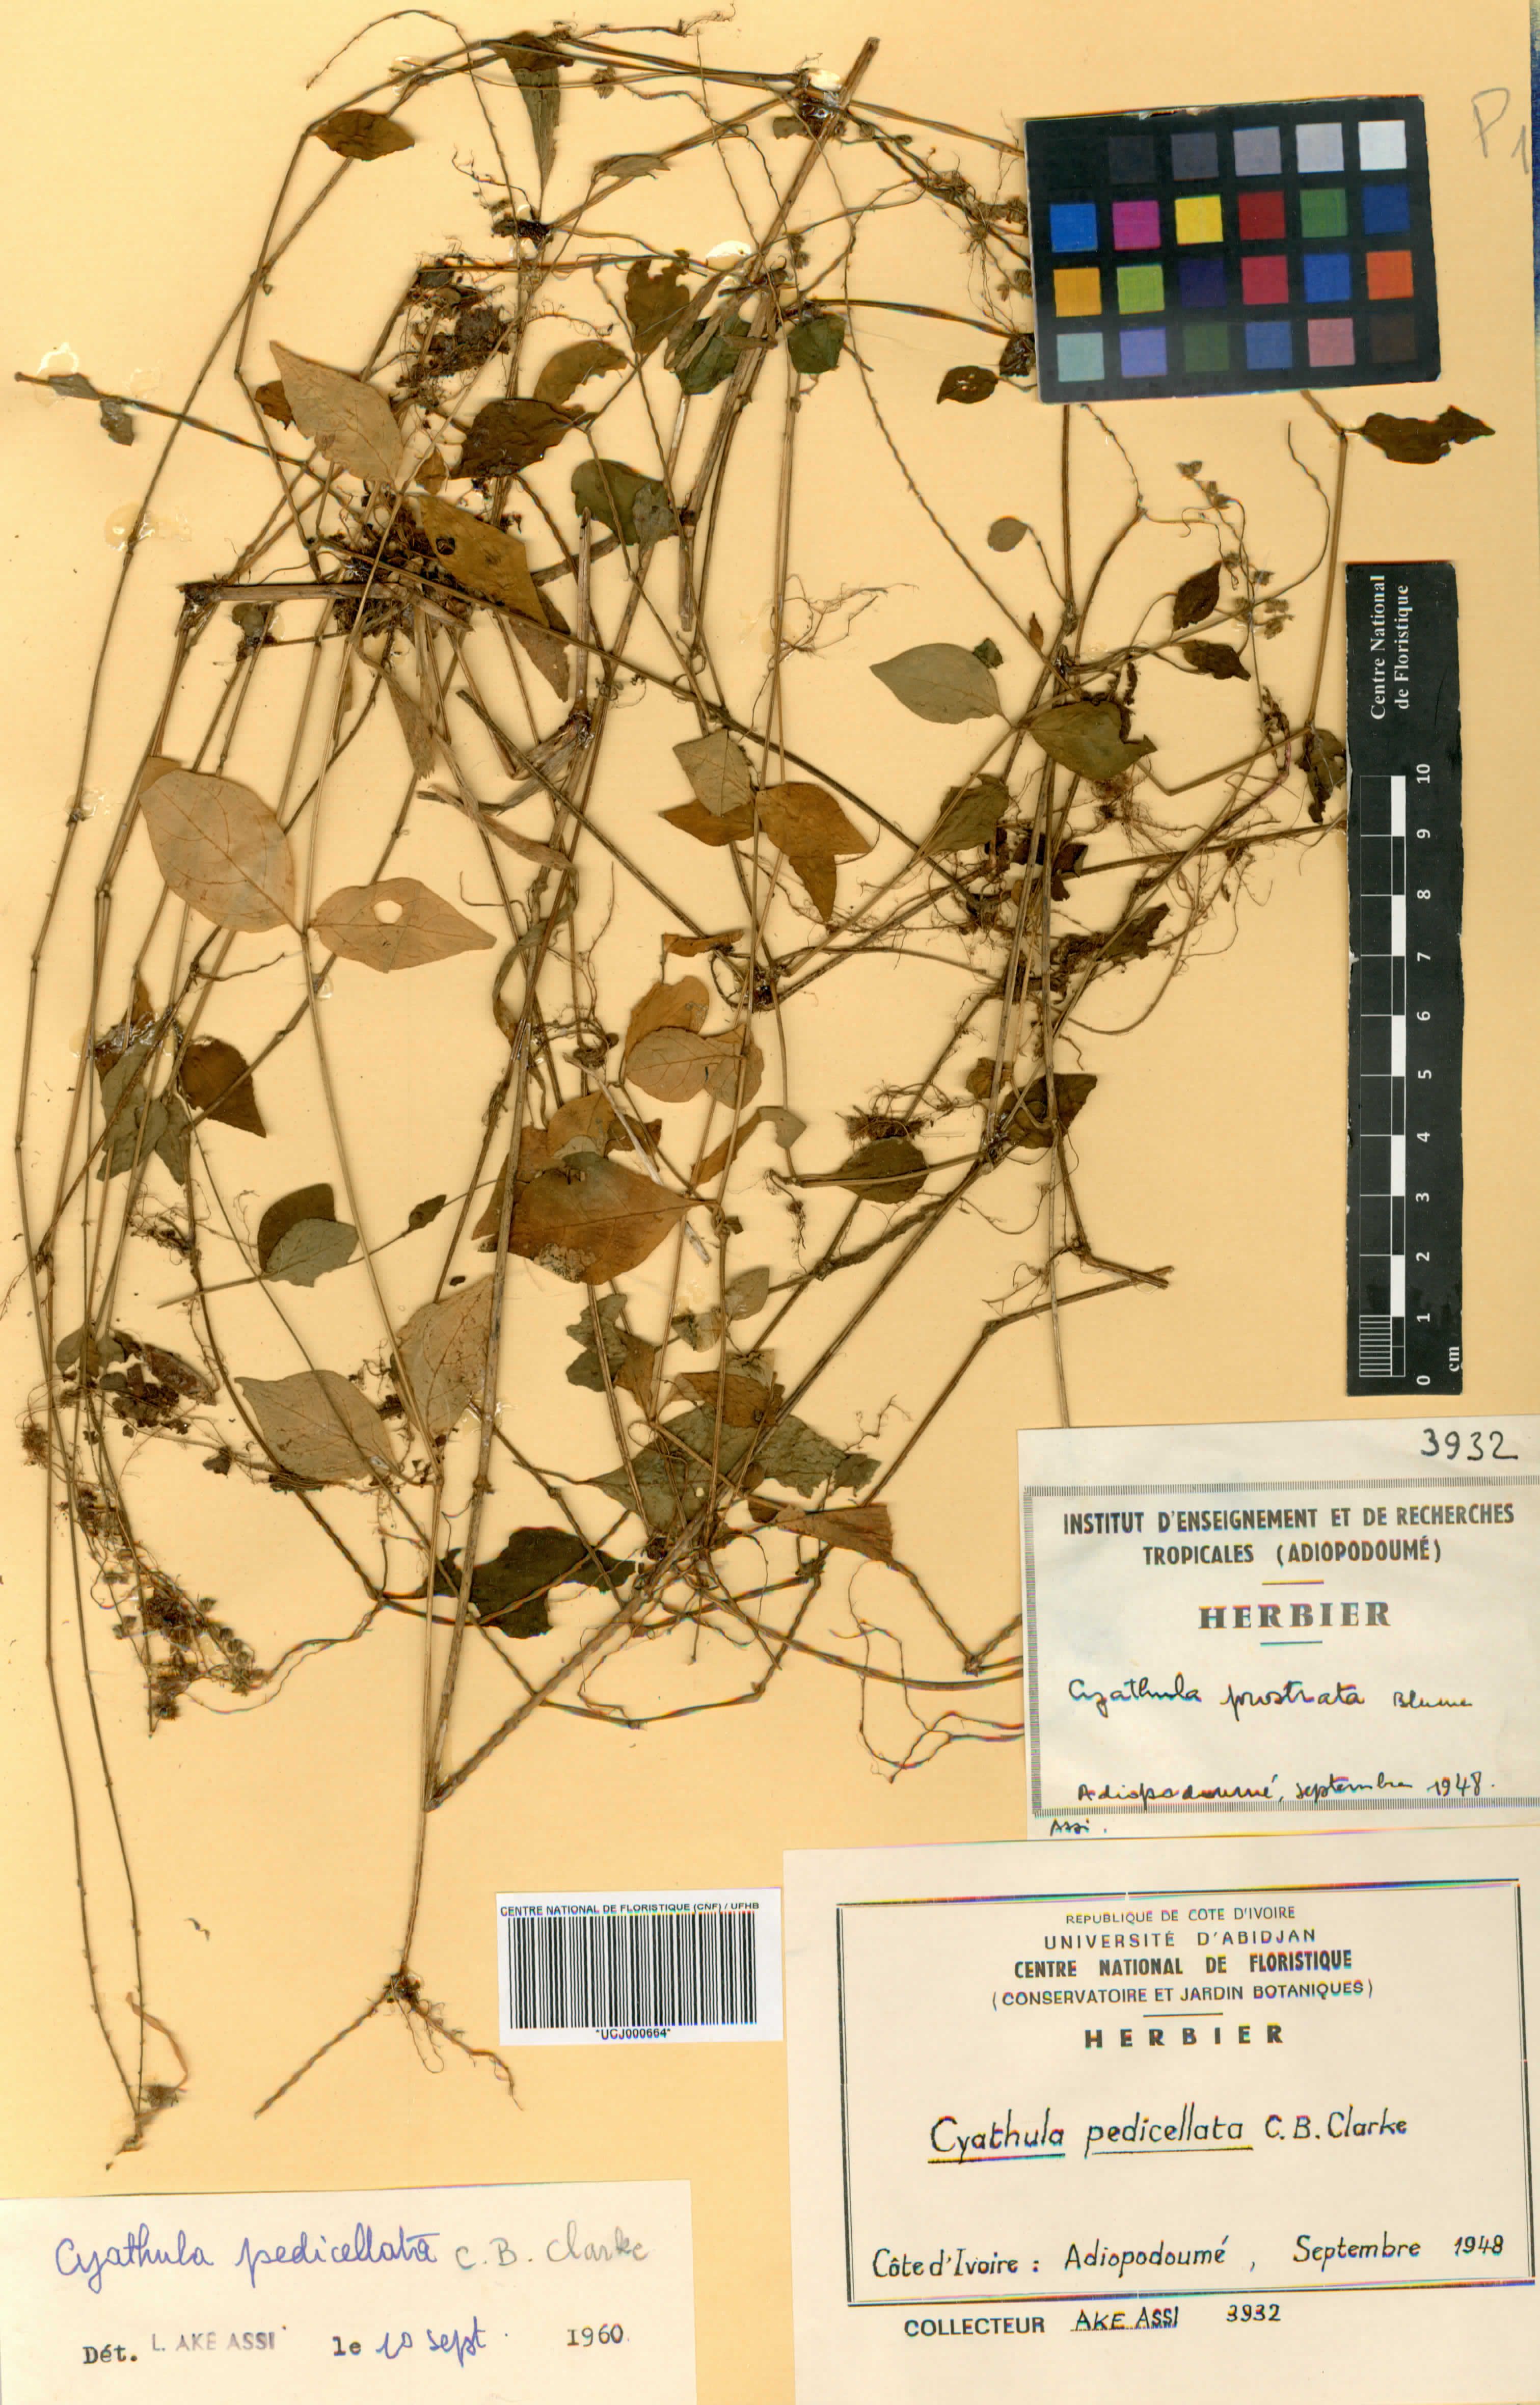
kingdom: Plantae
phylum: Tracheophyta
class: Magnoliopsida
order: Caryophyllales
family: Amaranthaceae
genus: Cyathula
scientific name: Cyathula prostrata
